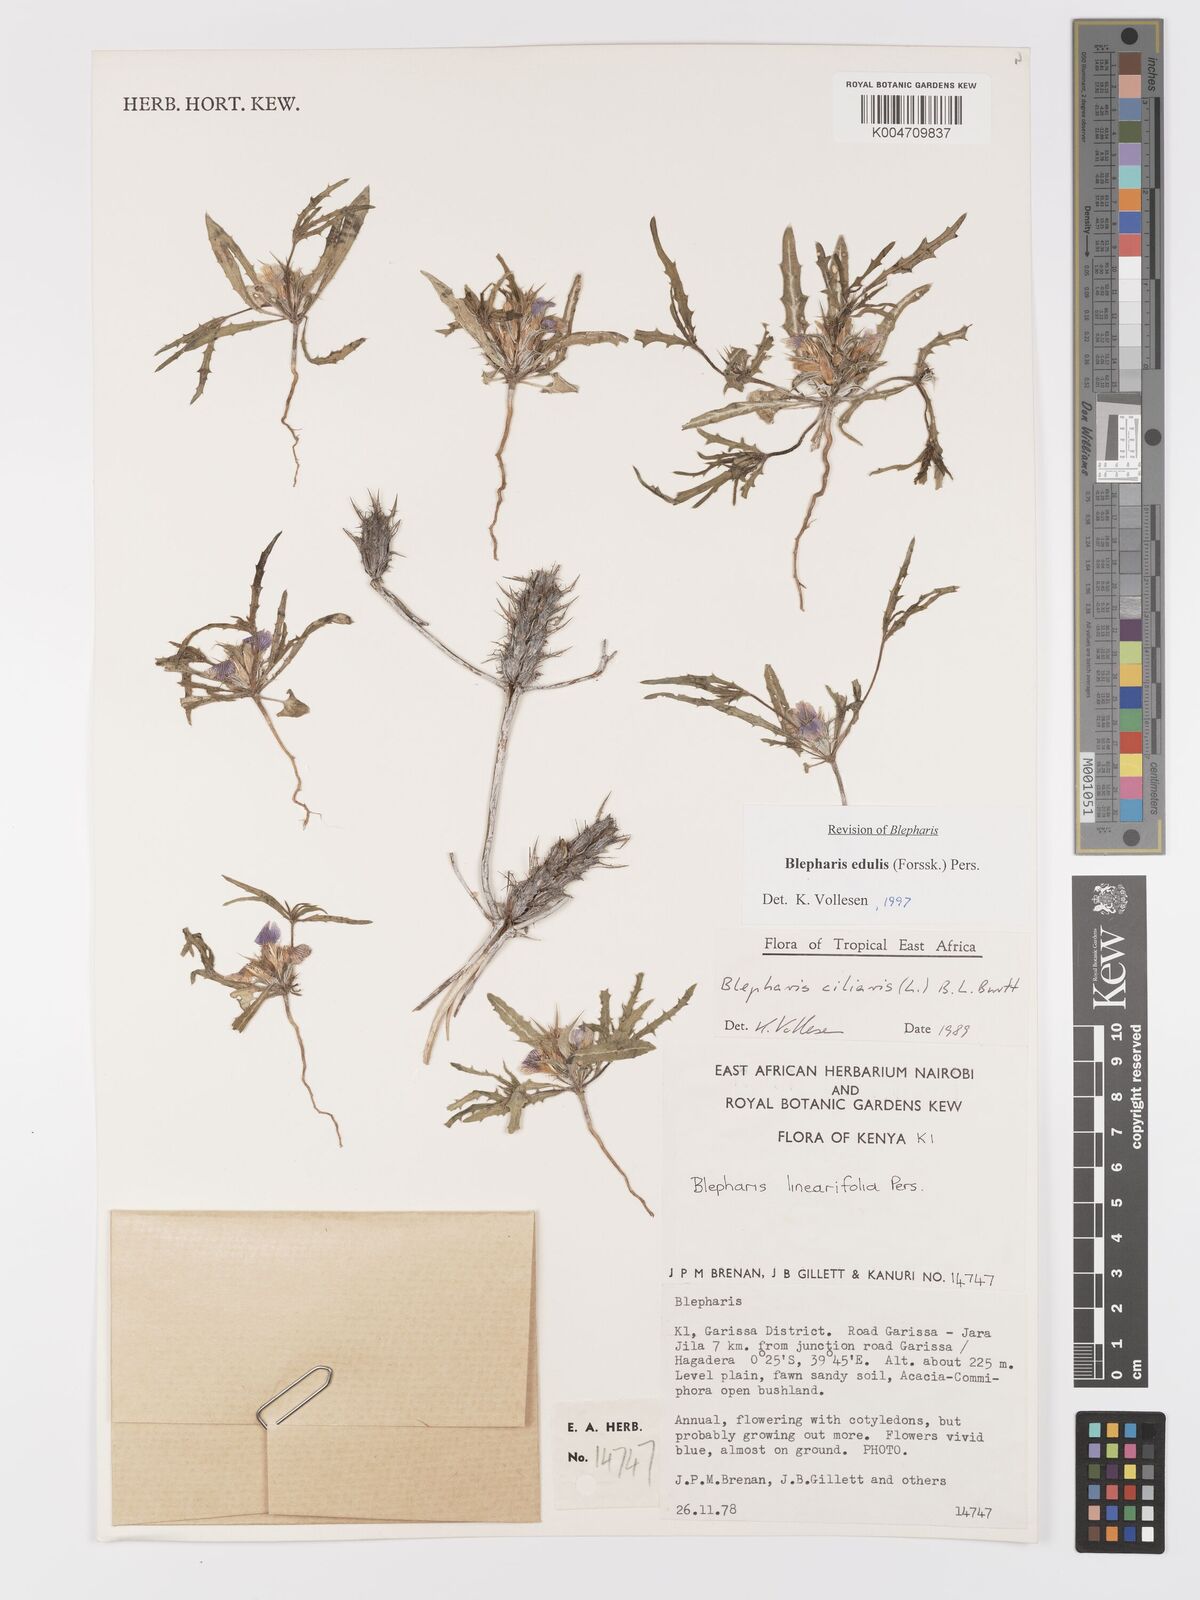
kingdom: Plantae
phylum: Tracheophyta
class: Magnoliopsida
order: Lamiales
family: Acanthaceae
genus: Blepharis
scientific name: Blepharis edulis
